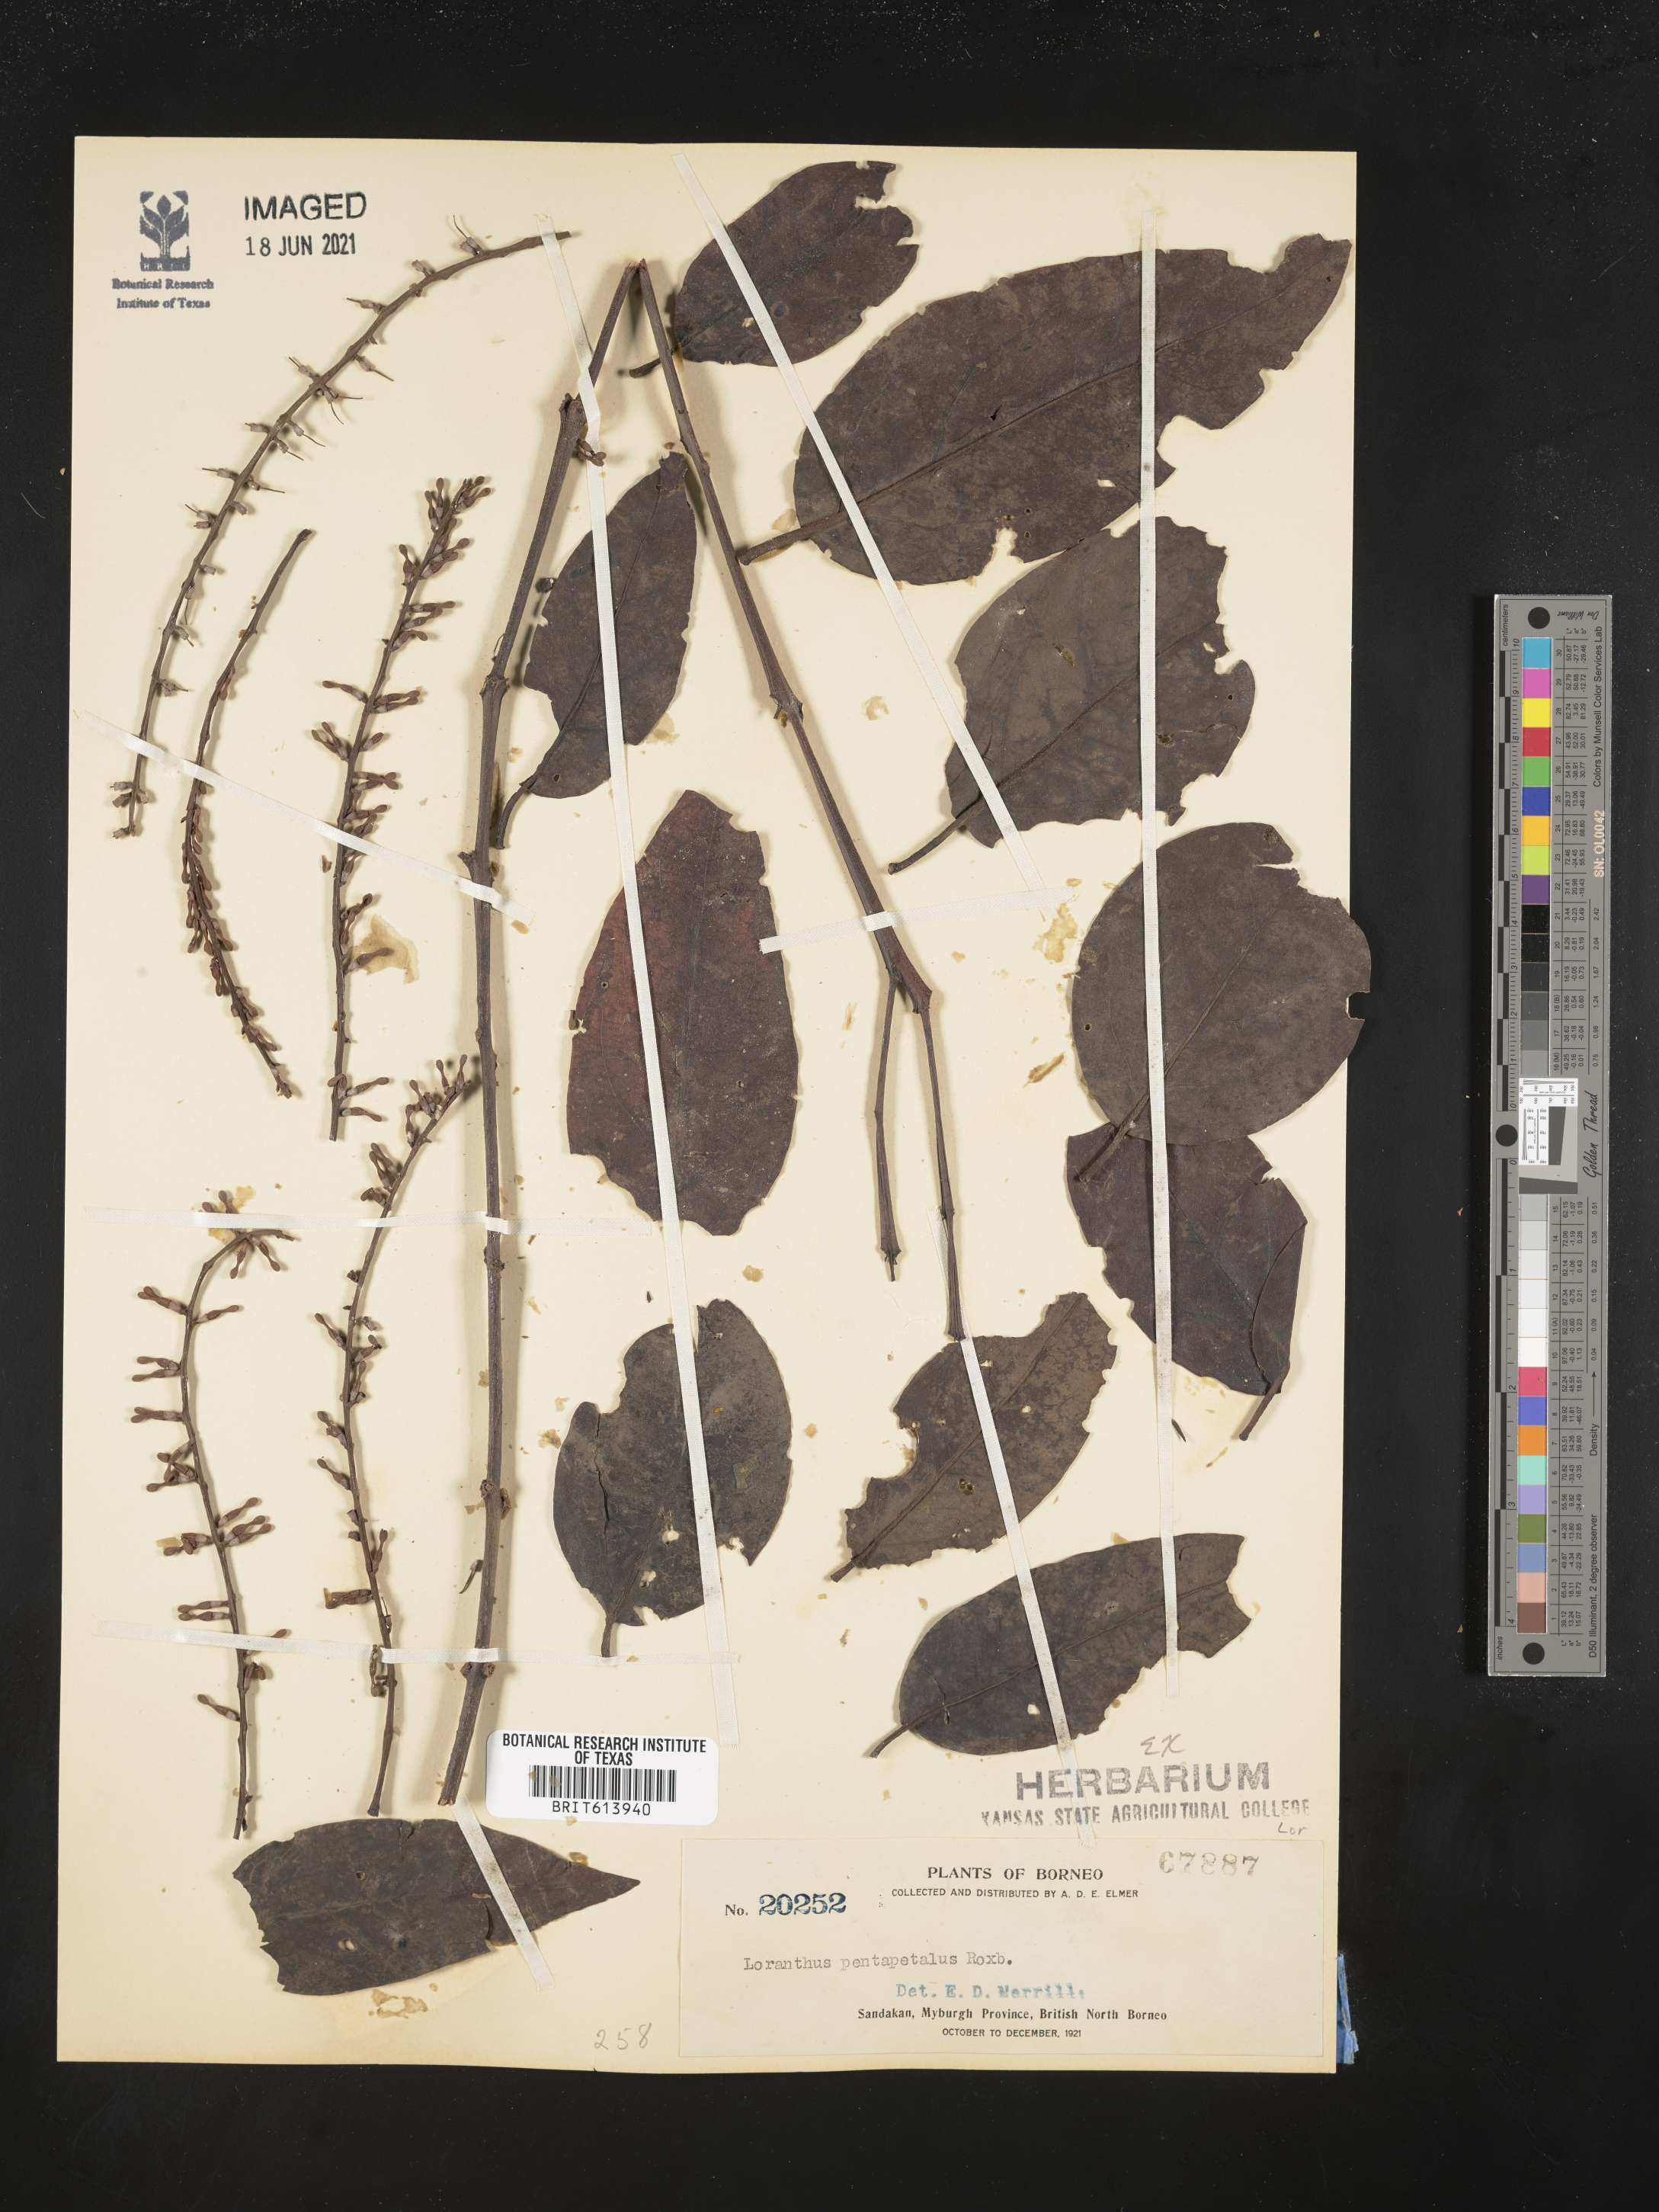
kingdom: Plantae
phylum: Tracheophyta
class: Magnoliopsida
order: Santalales
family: Loranthaceae
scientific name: Loranthaceae
